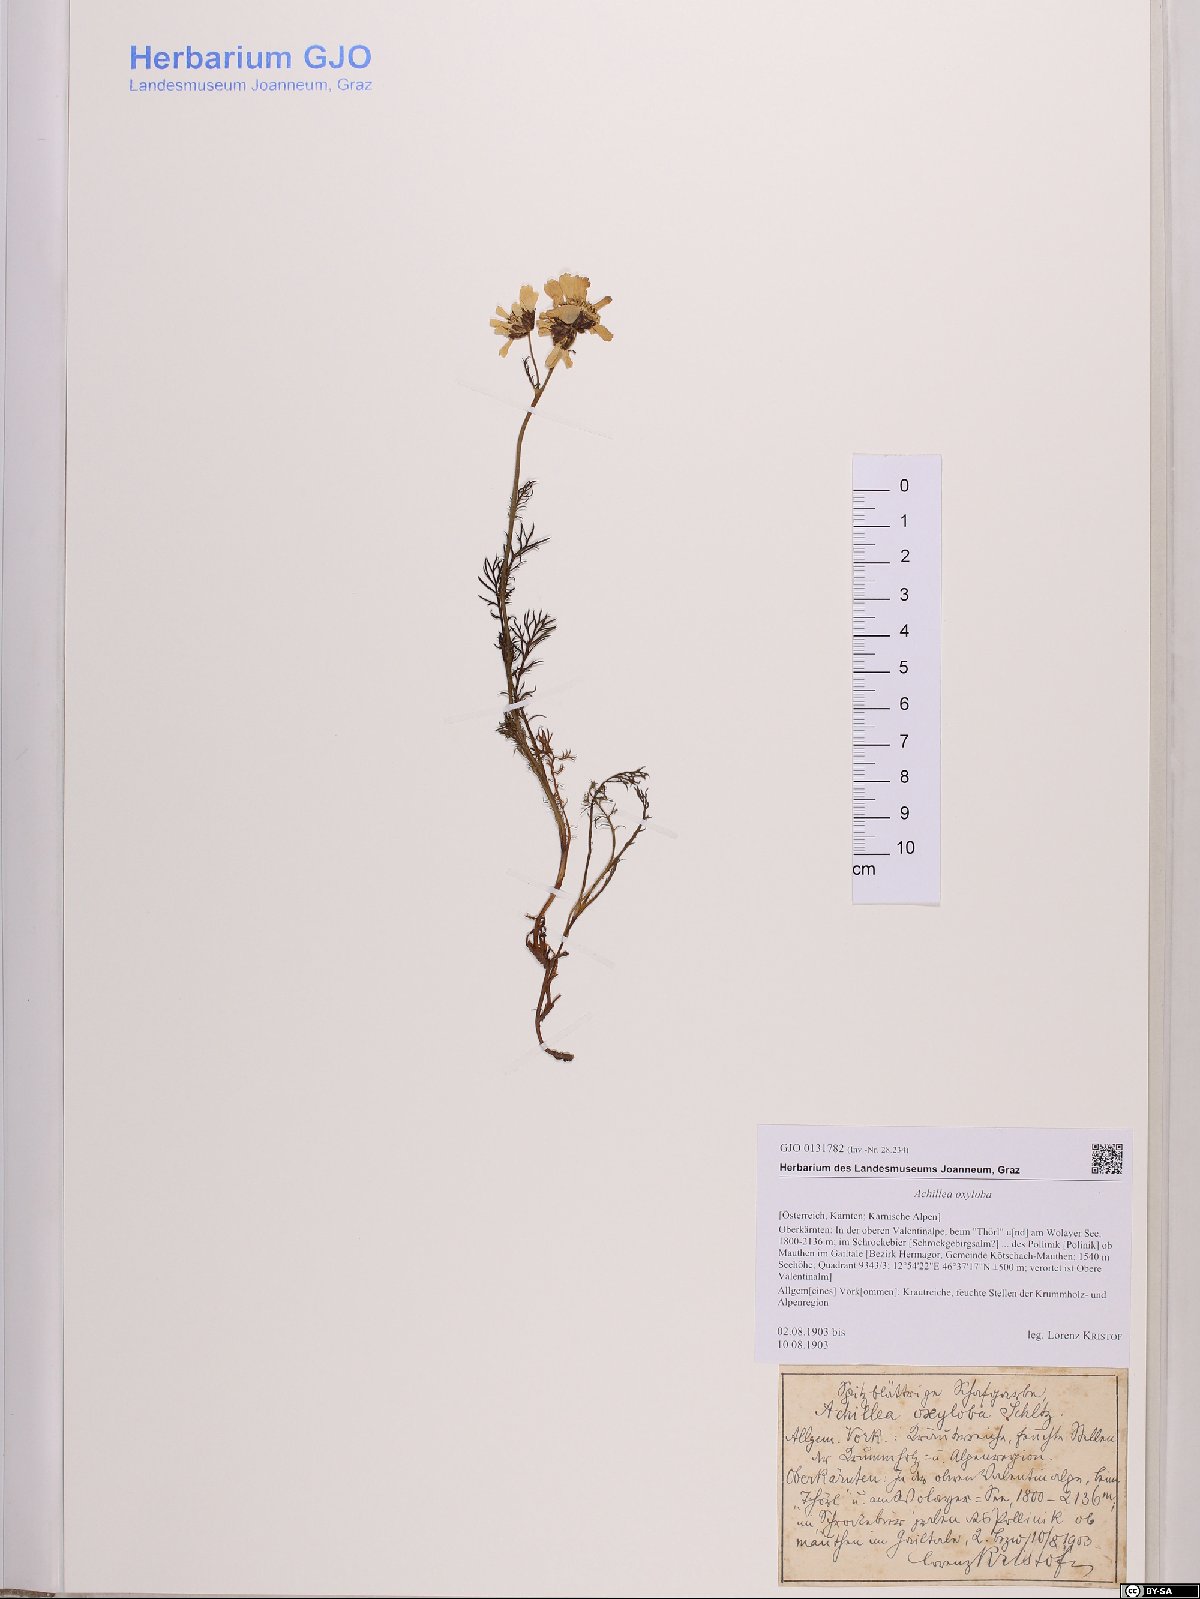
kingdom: Plantae
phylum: Tracheophyta
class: Magnoliopsida
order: Asterales
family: Asteraceae
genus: Achillea
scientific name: Achillea oxyloba
